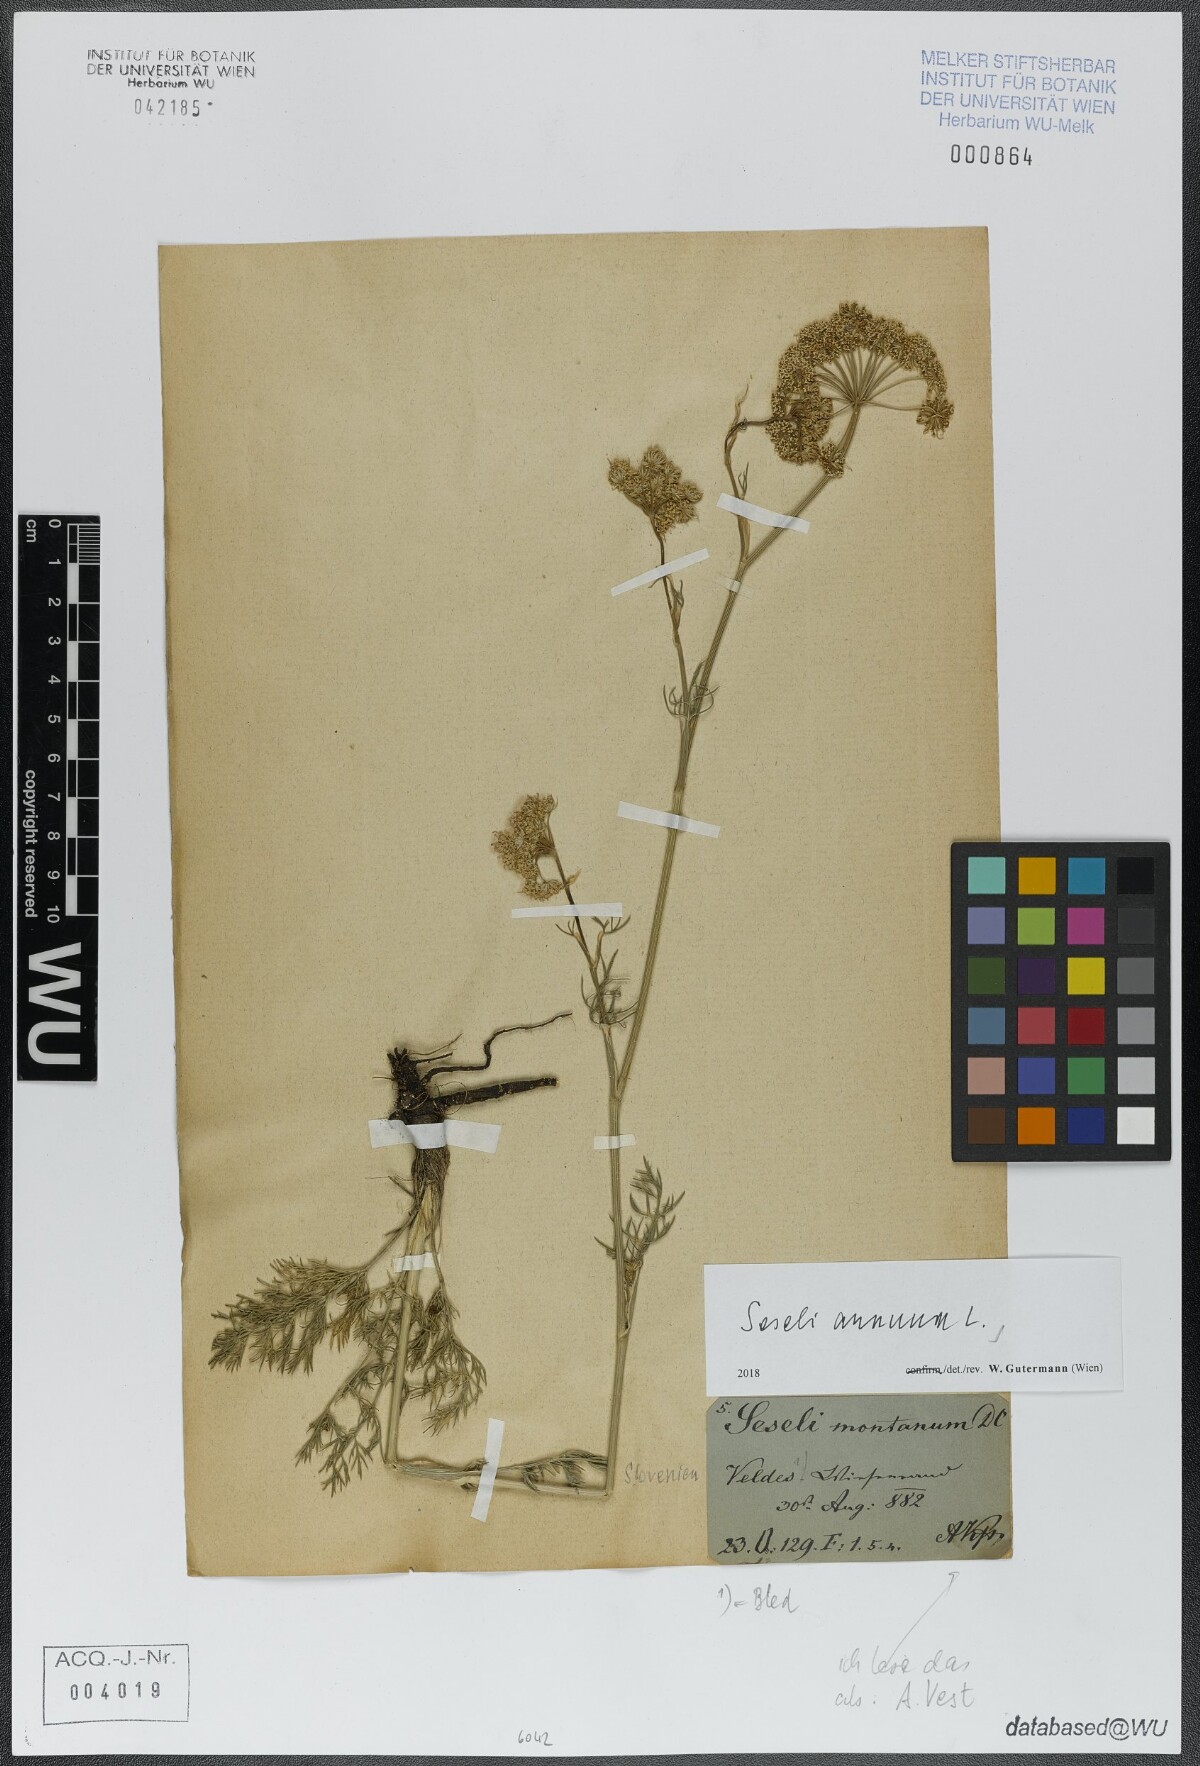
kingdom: Plantae
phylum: Tracheophyta
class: Magnoliopsida
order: Apiales
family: Apiaceae
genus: Seseli
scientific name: Seseli annuum
